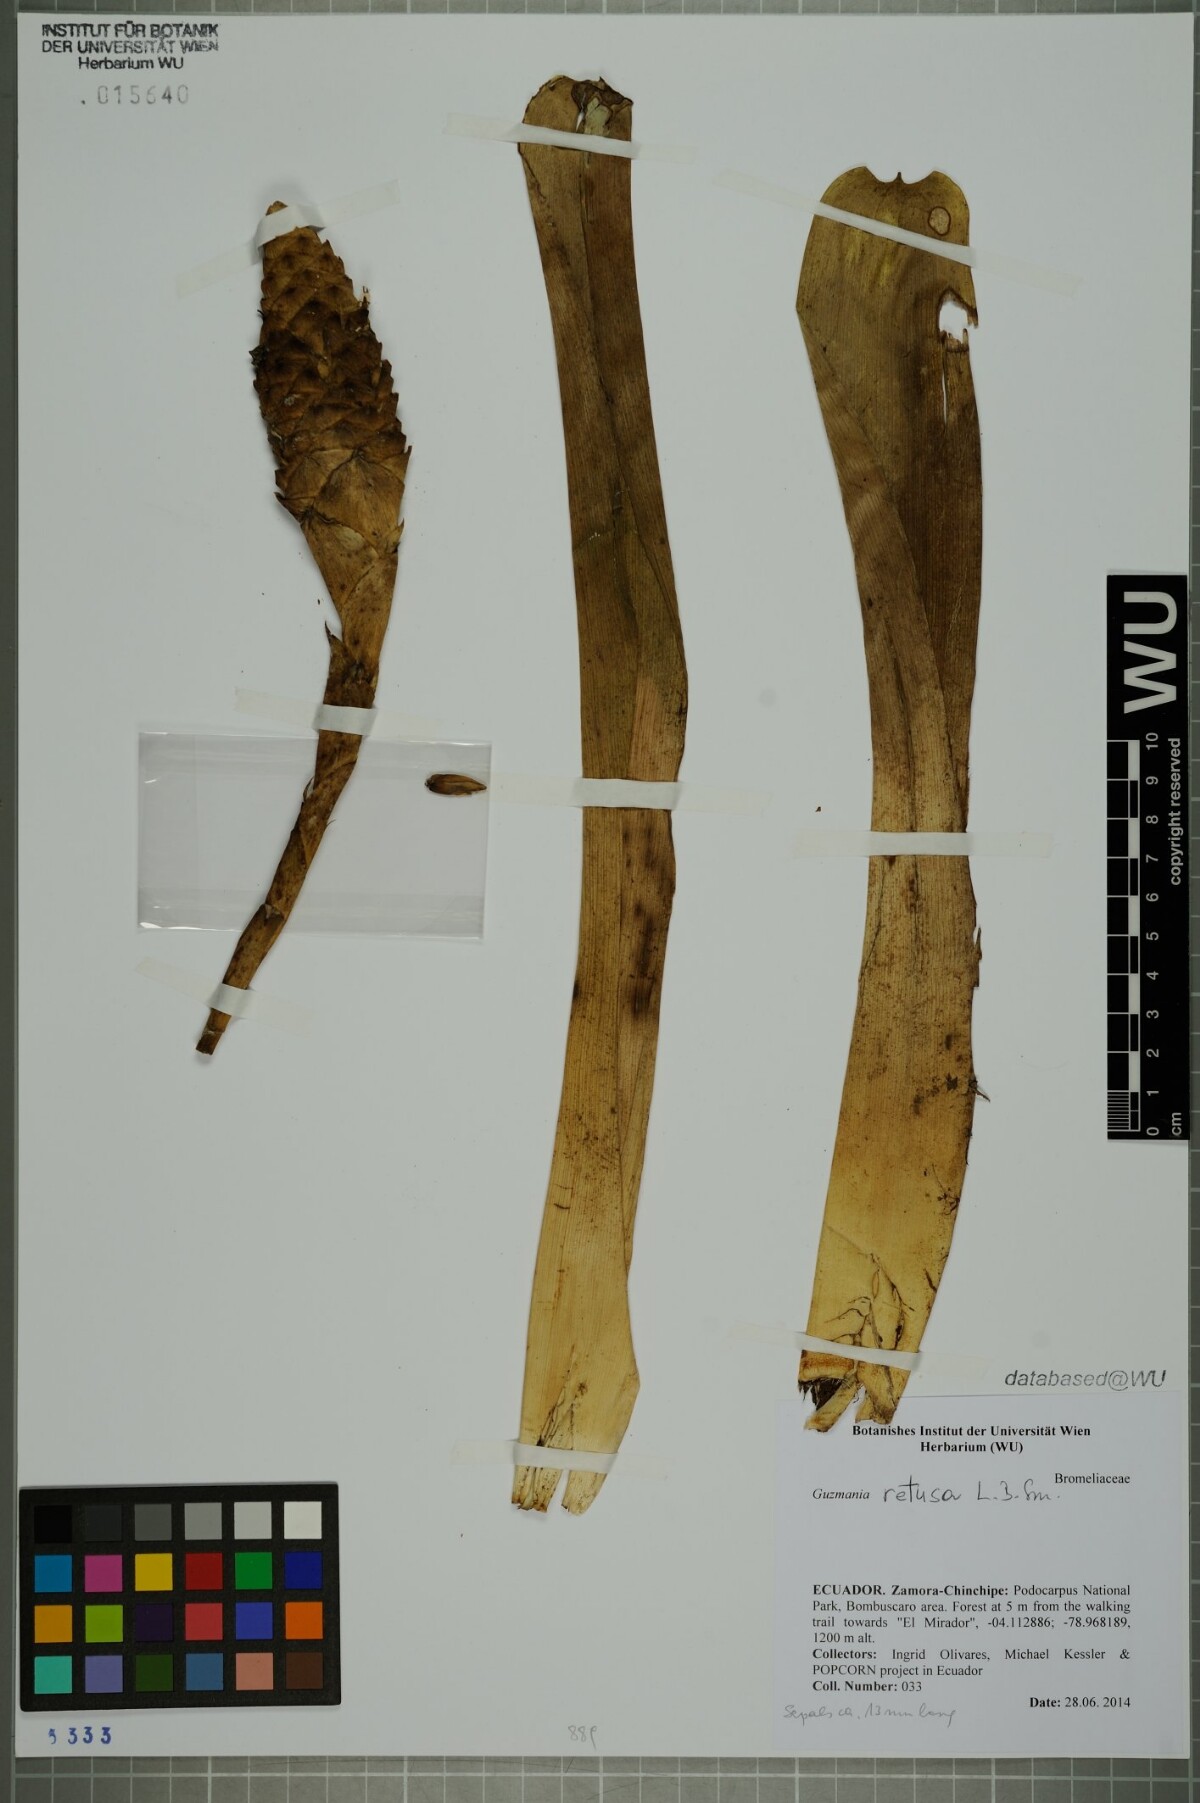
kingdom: Plantae
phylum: Tracheophyta
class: Liliopsida
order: Poales
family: Bromeliaceae
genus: Guzmania
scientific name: Guzmania retusa
